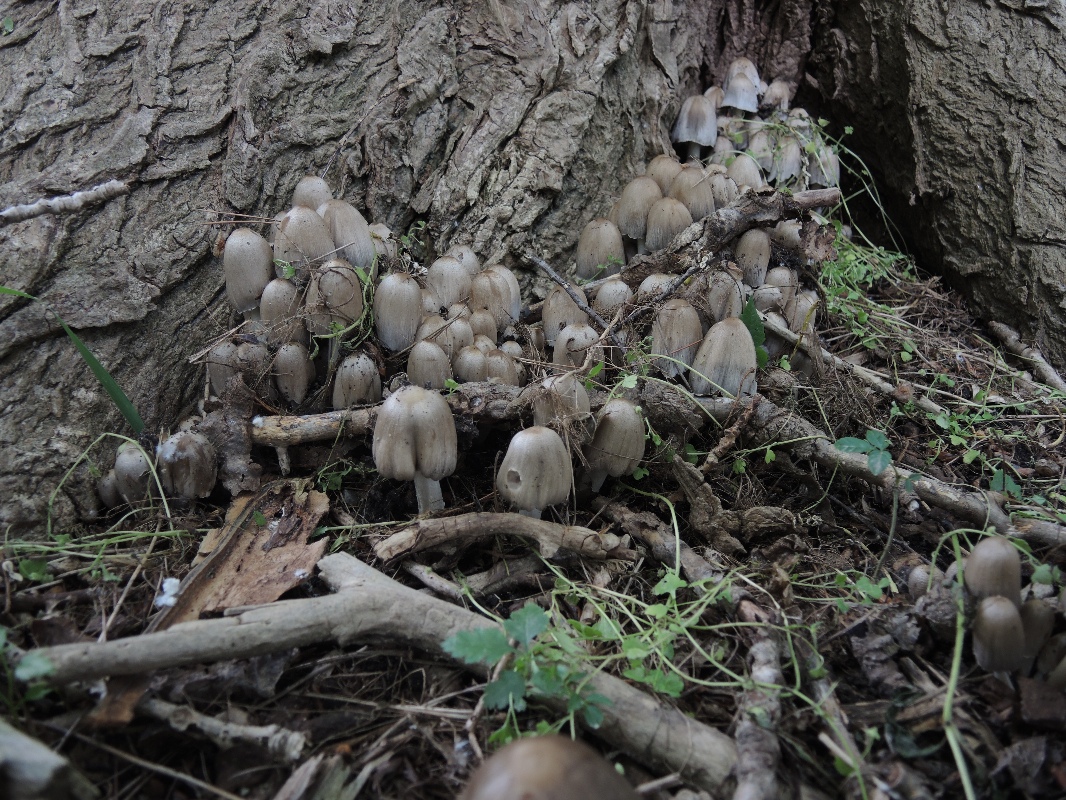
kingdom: Fungi
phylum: Basidiomycota
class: Agaricomycetes
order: Agaricales
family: Psathyrellaceae
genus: Coprinopsis
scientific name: Coprinopsis atramentaria
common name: almindelig blækhat
